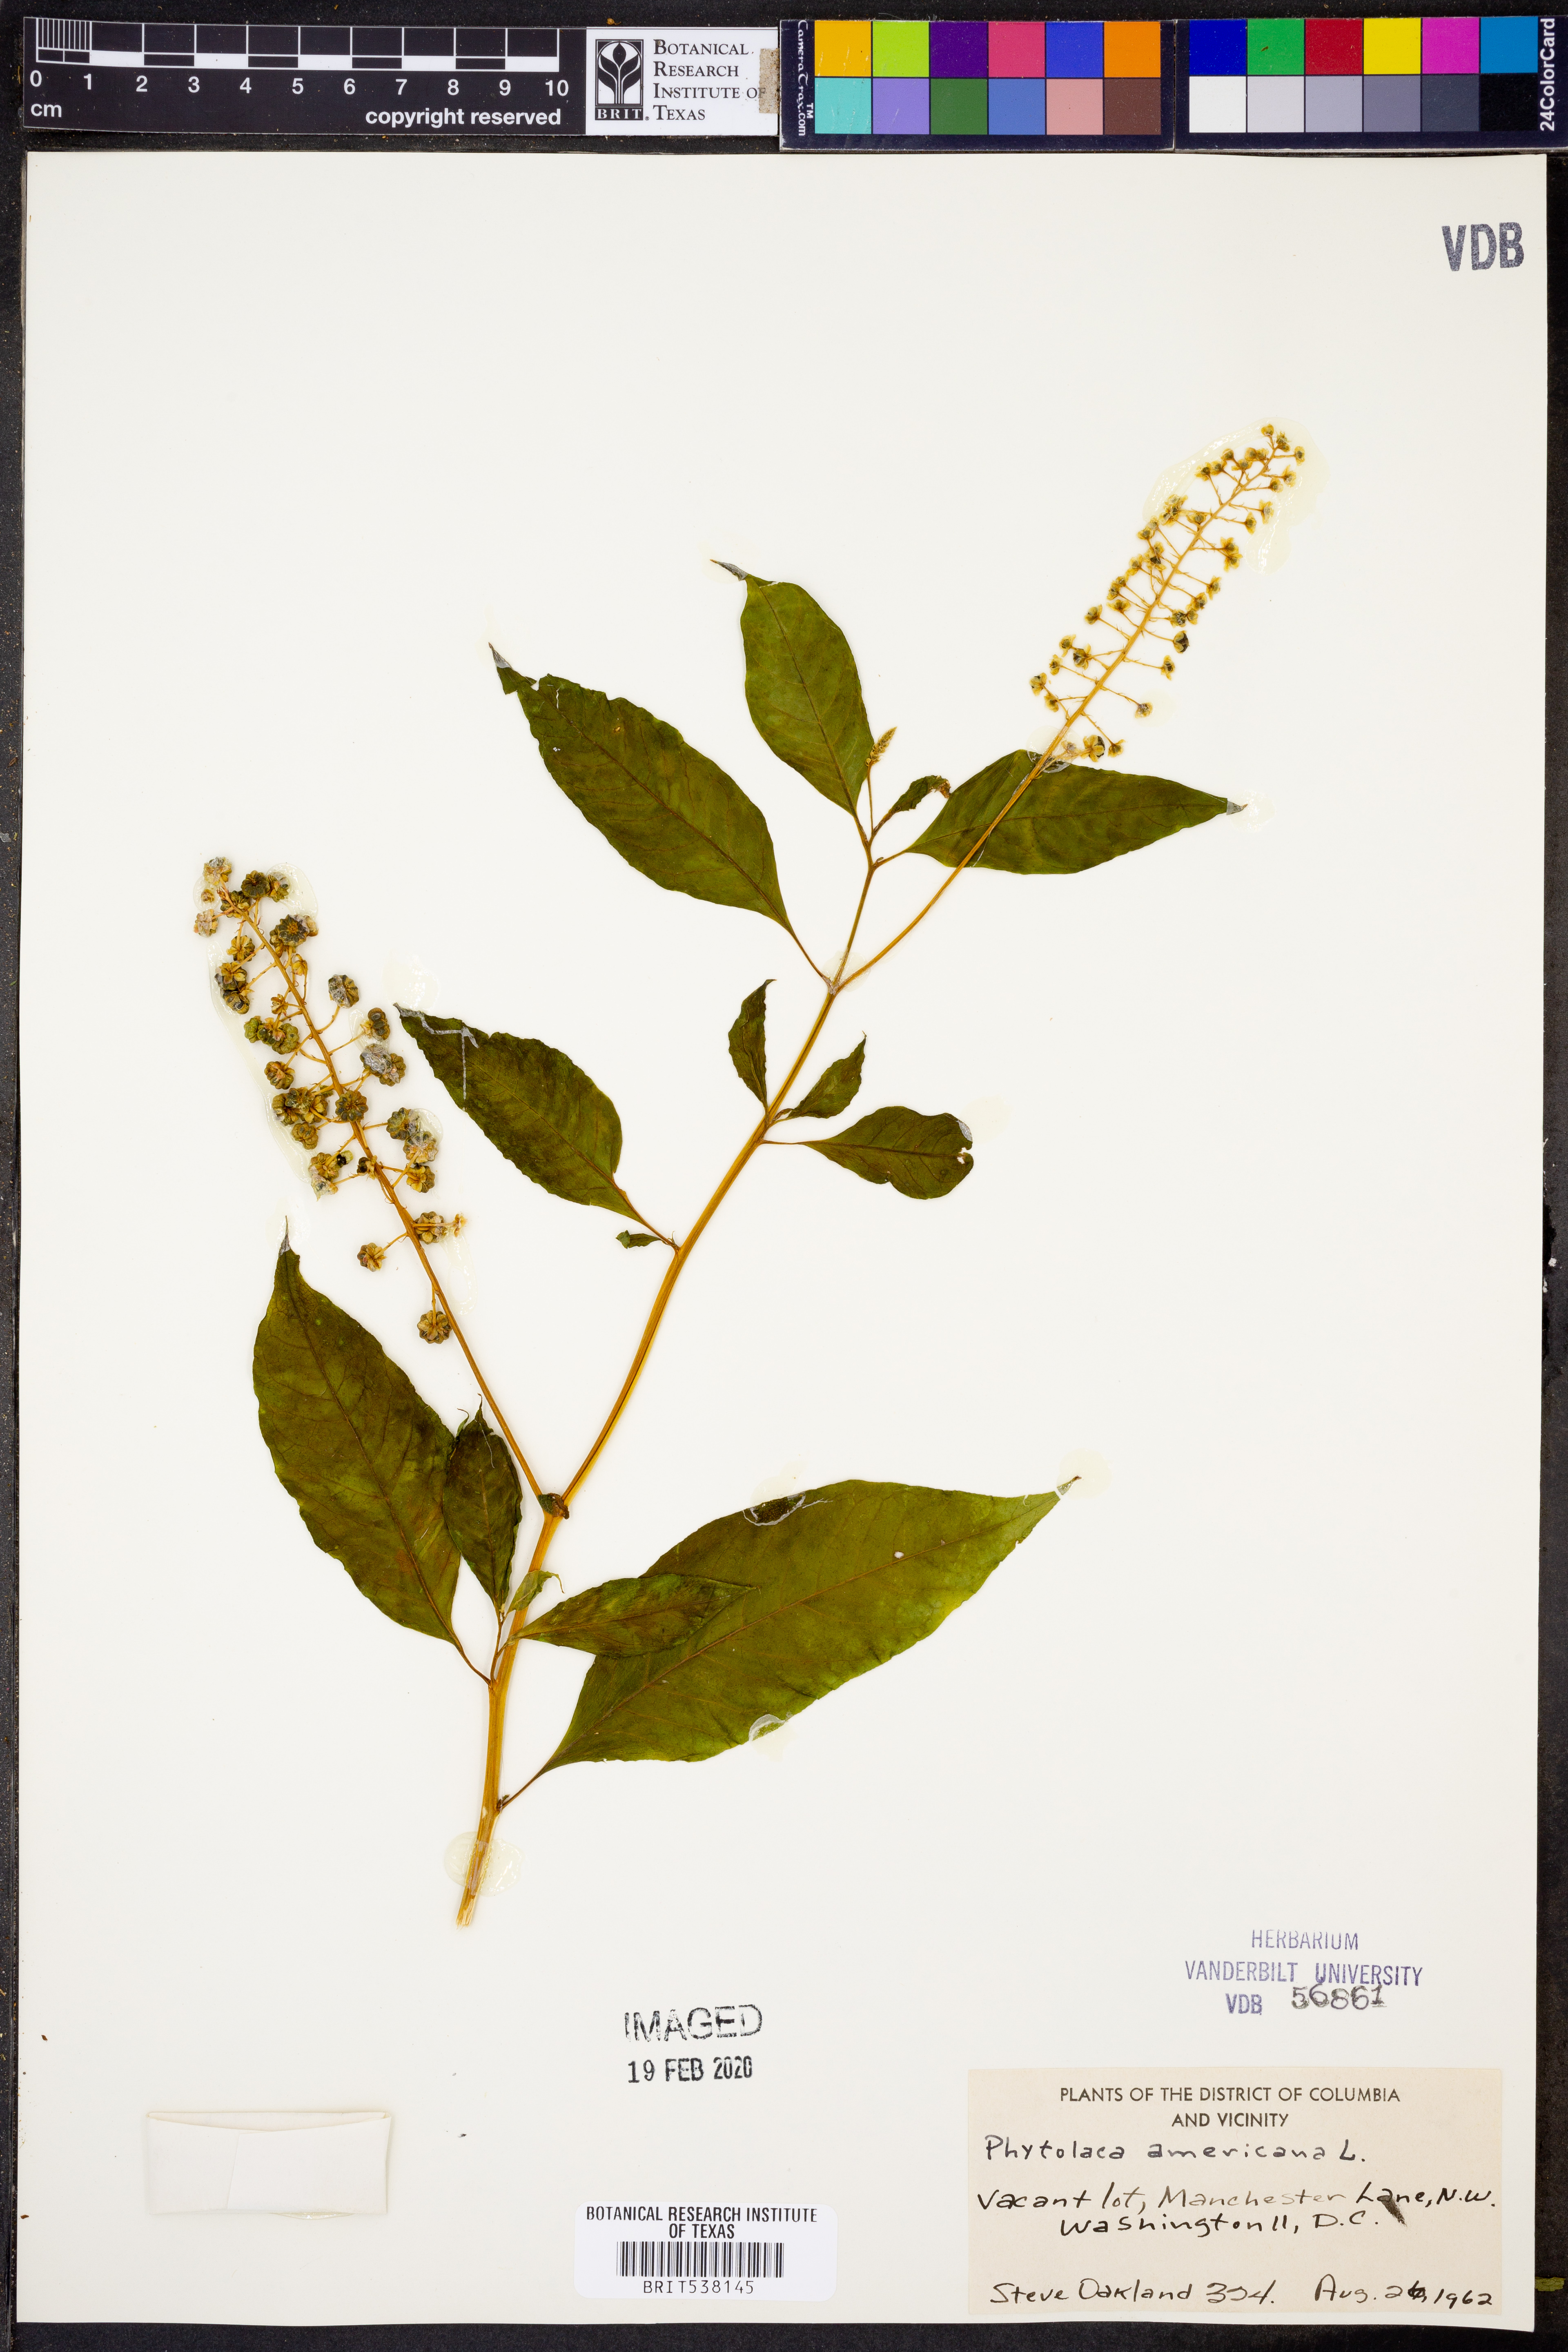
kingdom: Plantae
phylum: Tracheophyta
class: Magnoliopsida
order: Caryophyllales
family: Phytolaccaceae
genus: Phytolacca
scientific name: Phytolacca americana
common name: American pokeweed
